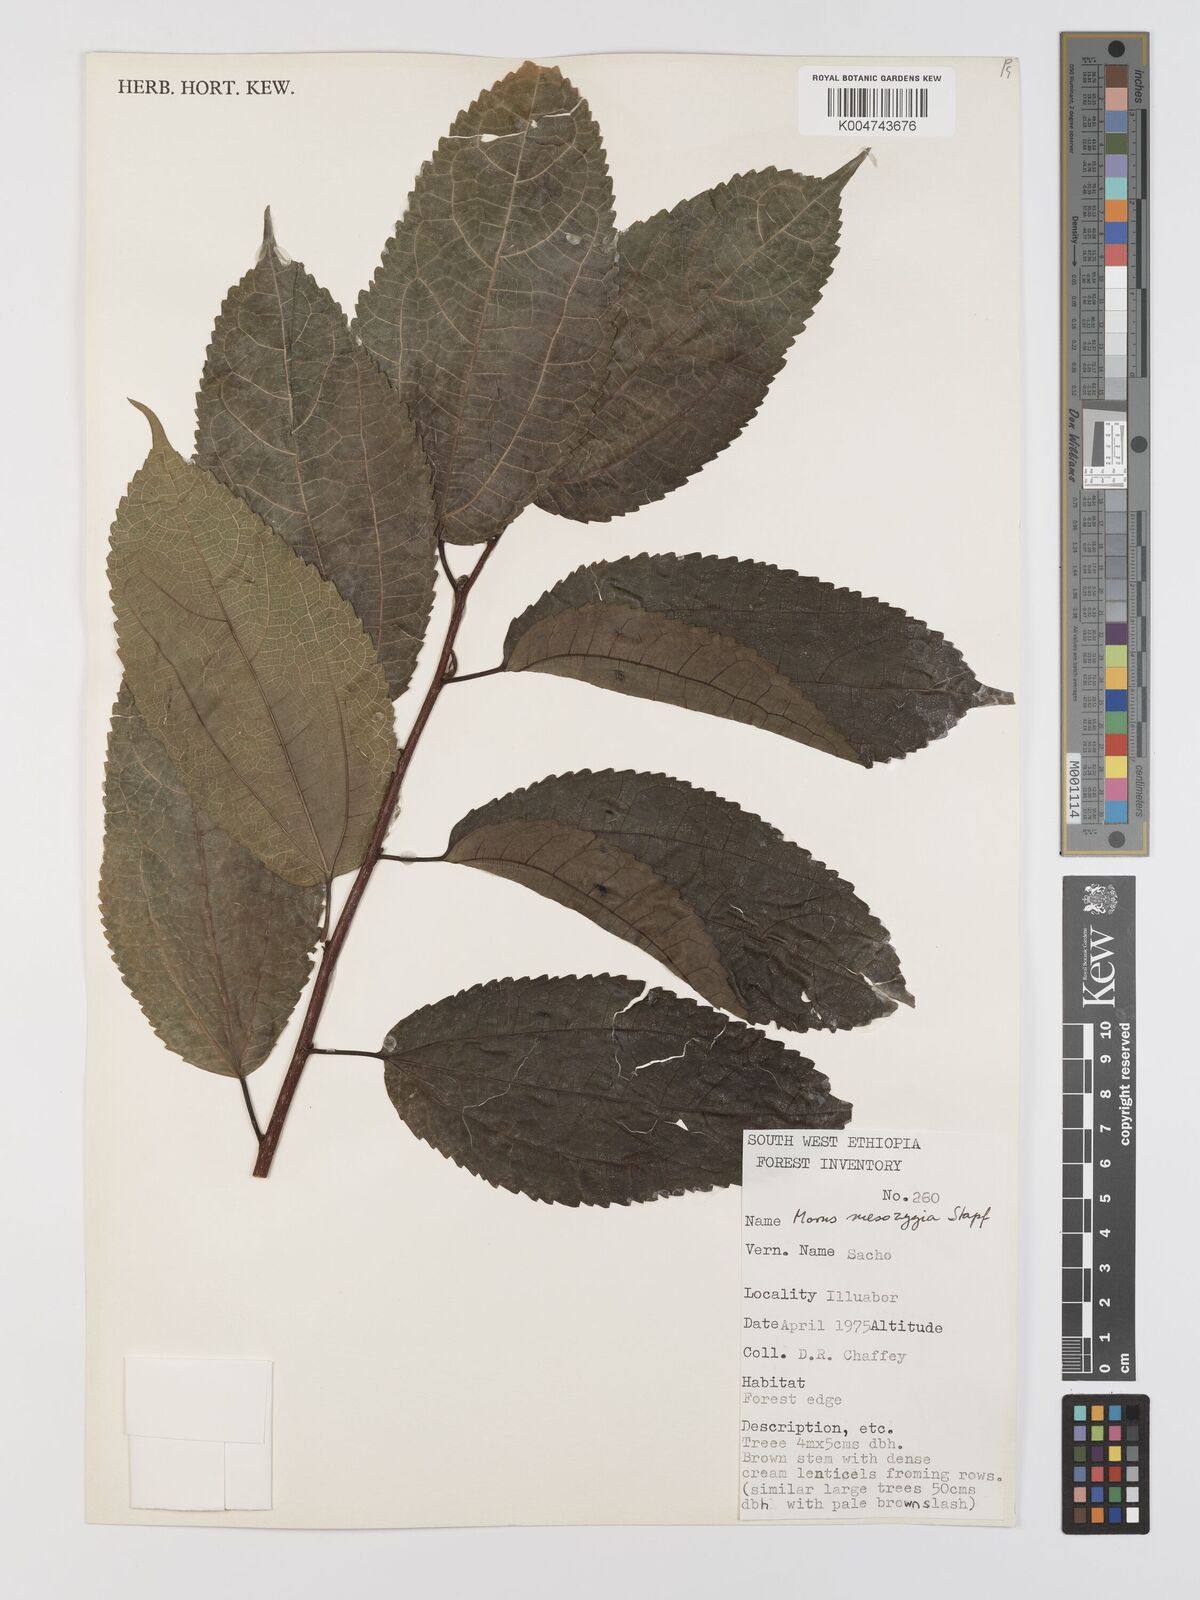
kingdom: Plantae
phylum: Tracheophyta
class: Magnoliopsida
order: Rosales
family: Moraceae
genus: Afromorus
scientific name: Afromorus mesozygia
